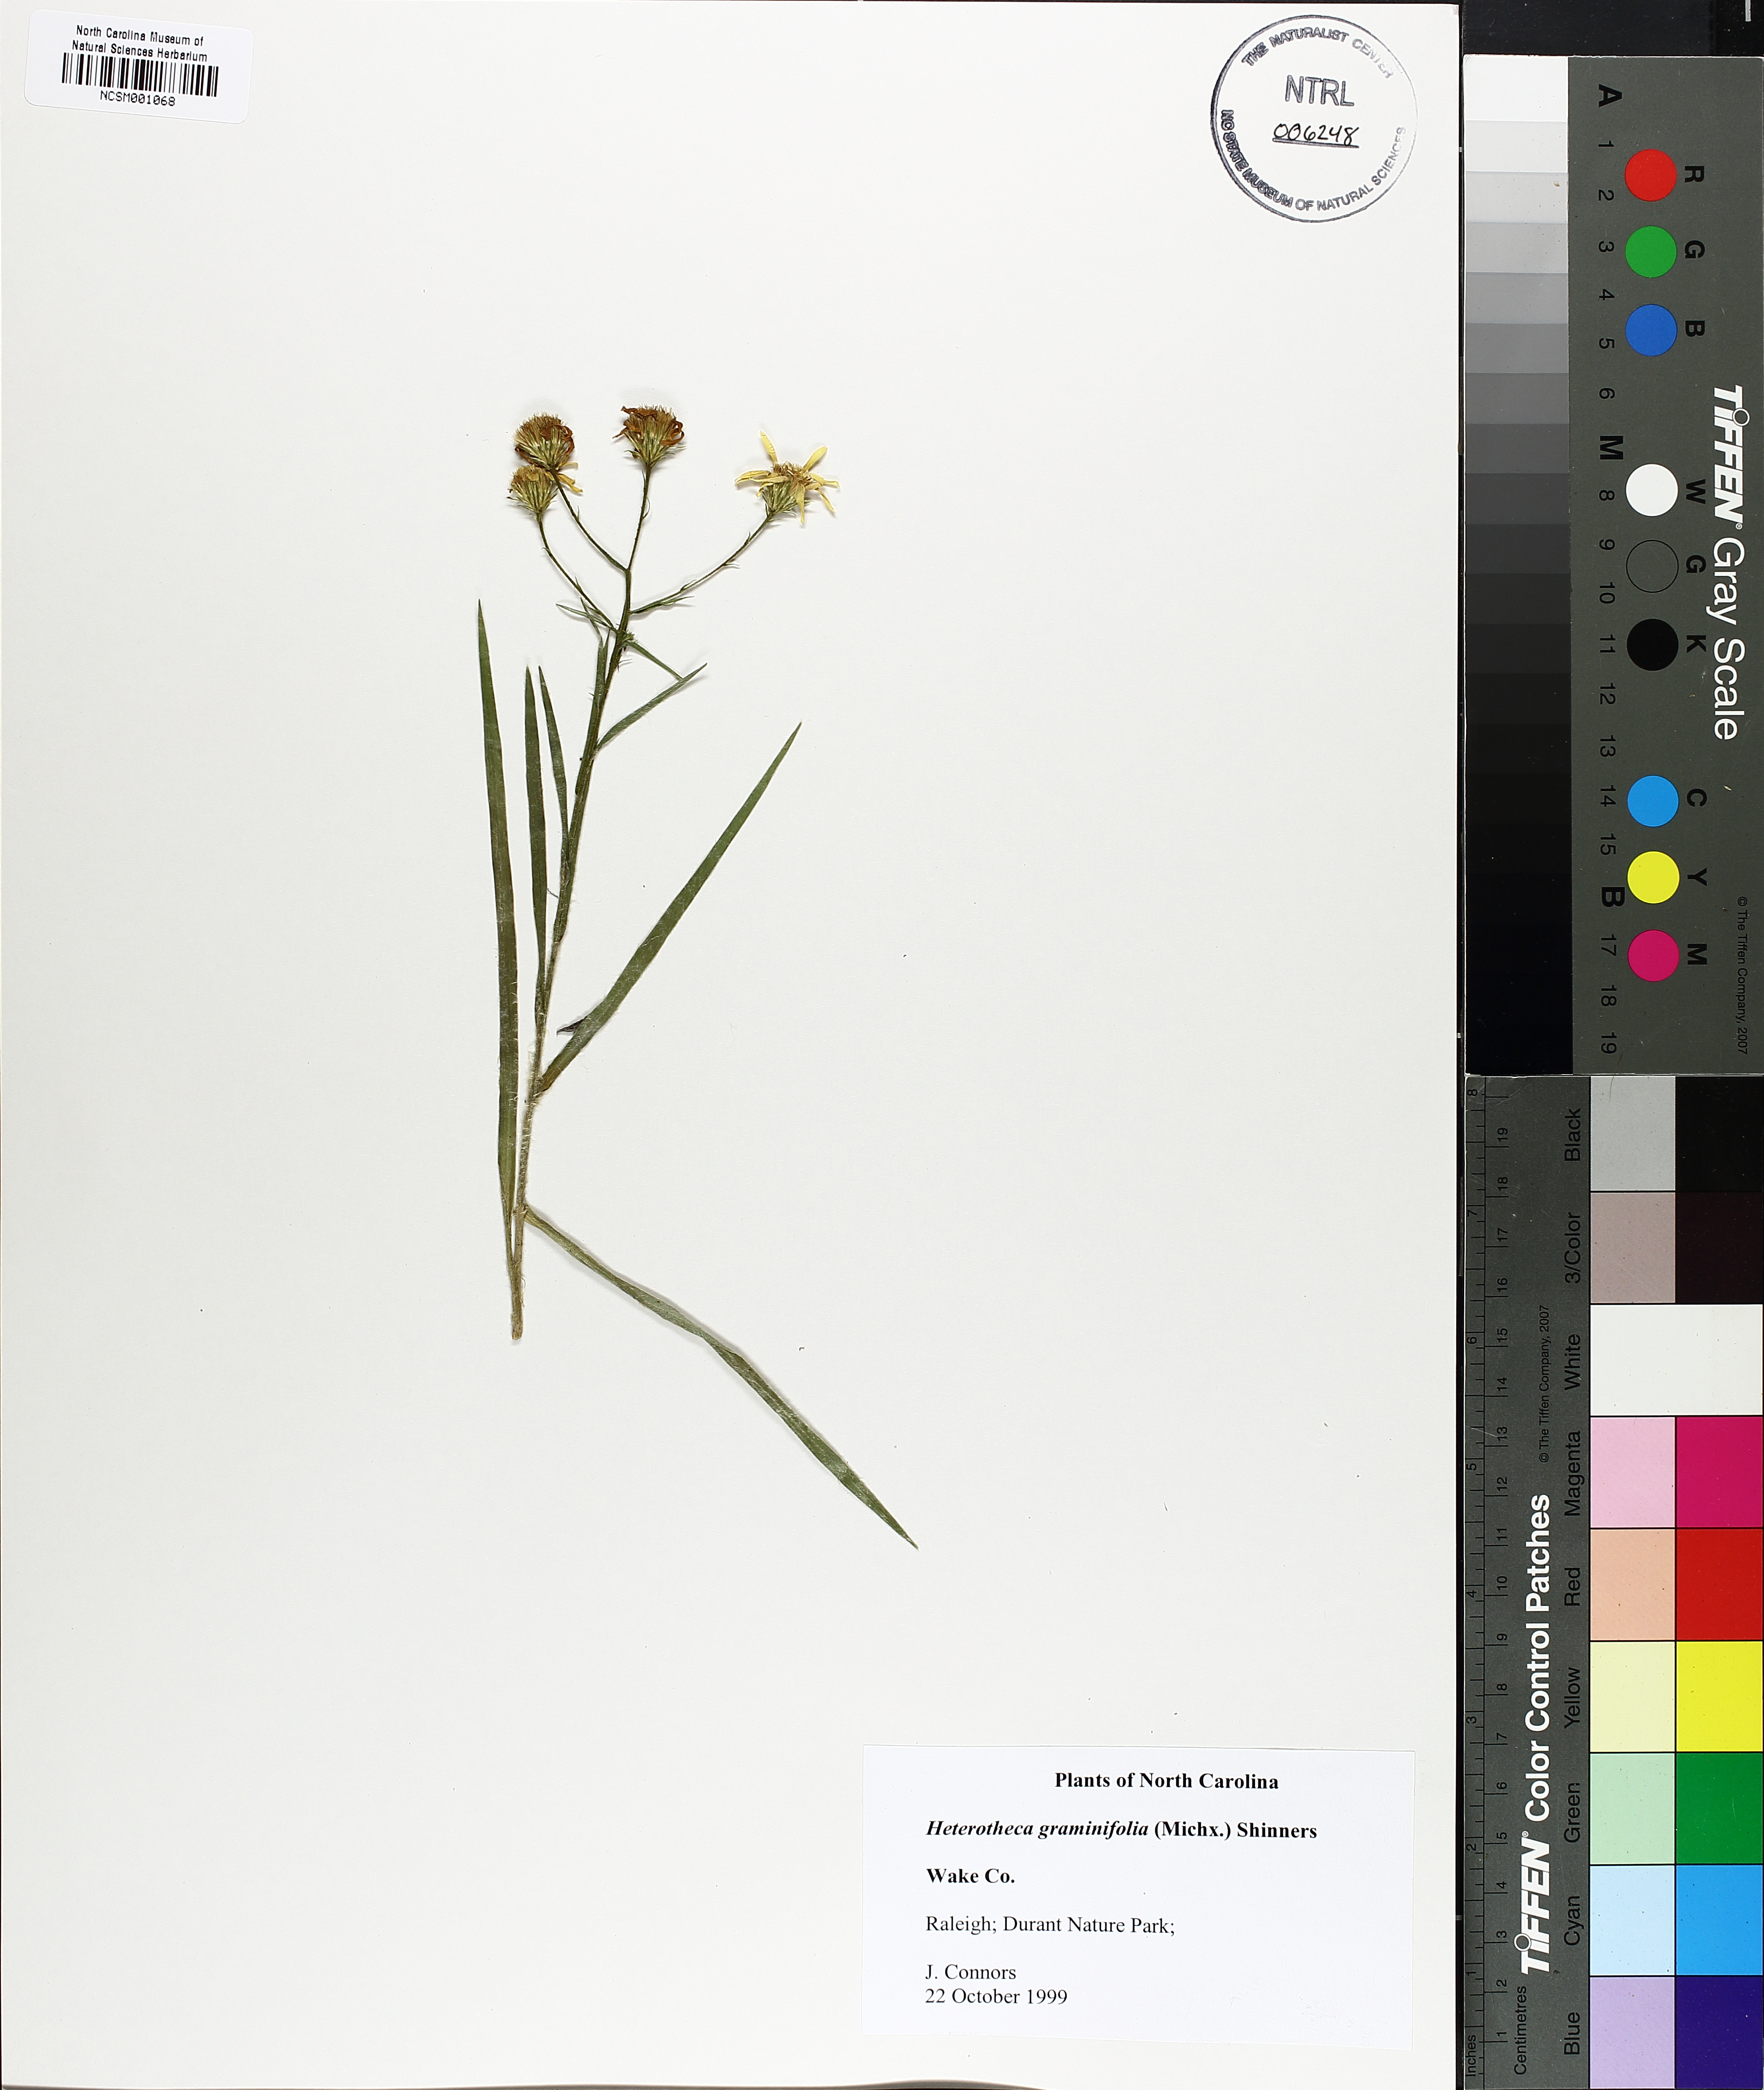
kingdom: Plantae
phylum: Tracheophyta
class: Magnoliopsida
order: Asterales
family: Asteraceae
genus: Pityopsis
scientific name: Pityopsis graminifolia
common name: Grass-leaf golden-aster
